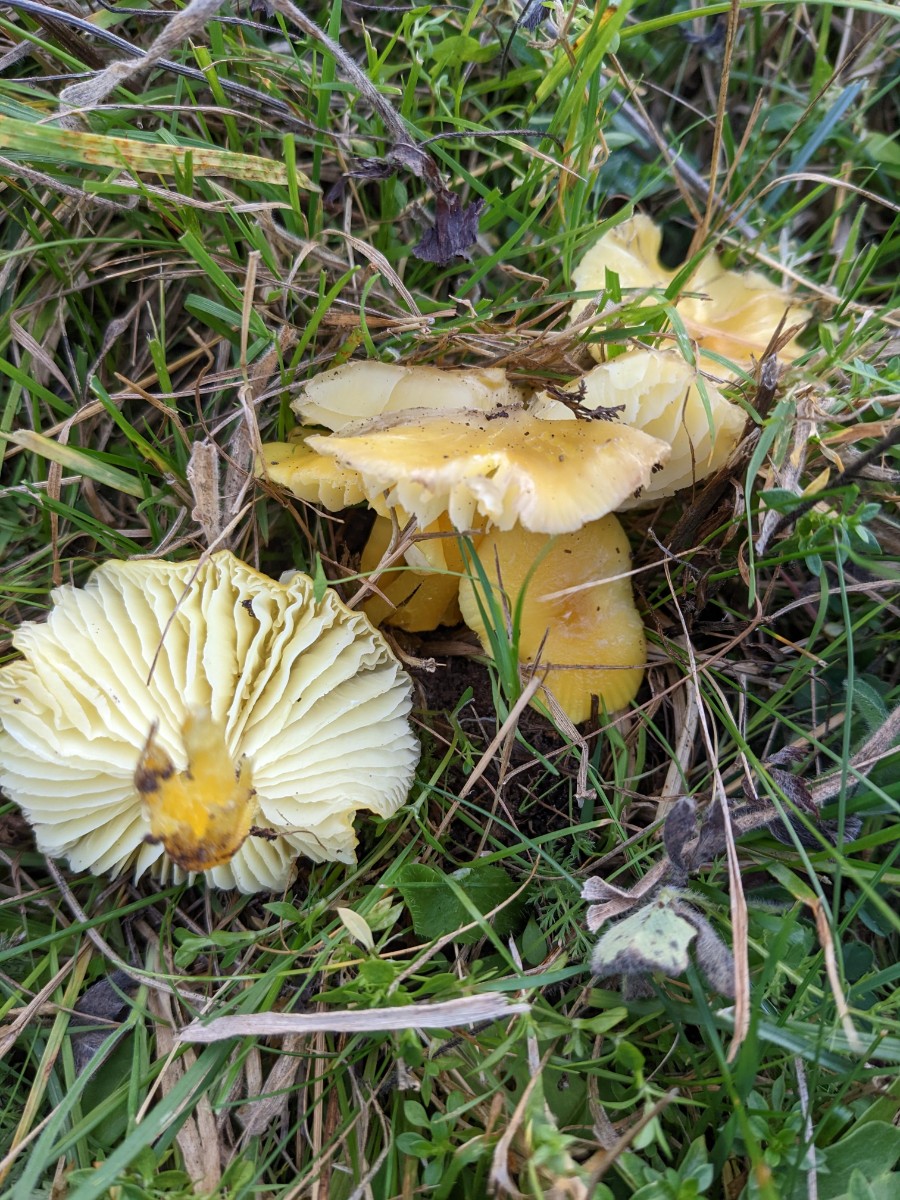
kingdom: Fungi
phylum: Basidiomycota
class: Agaricomycetes
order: Agaricales
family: Hygrophoraceae
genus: Hygrocybe
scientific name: Hygrocybe chlorophana
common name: gul vokshat
